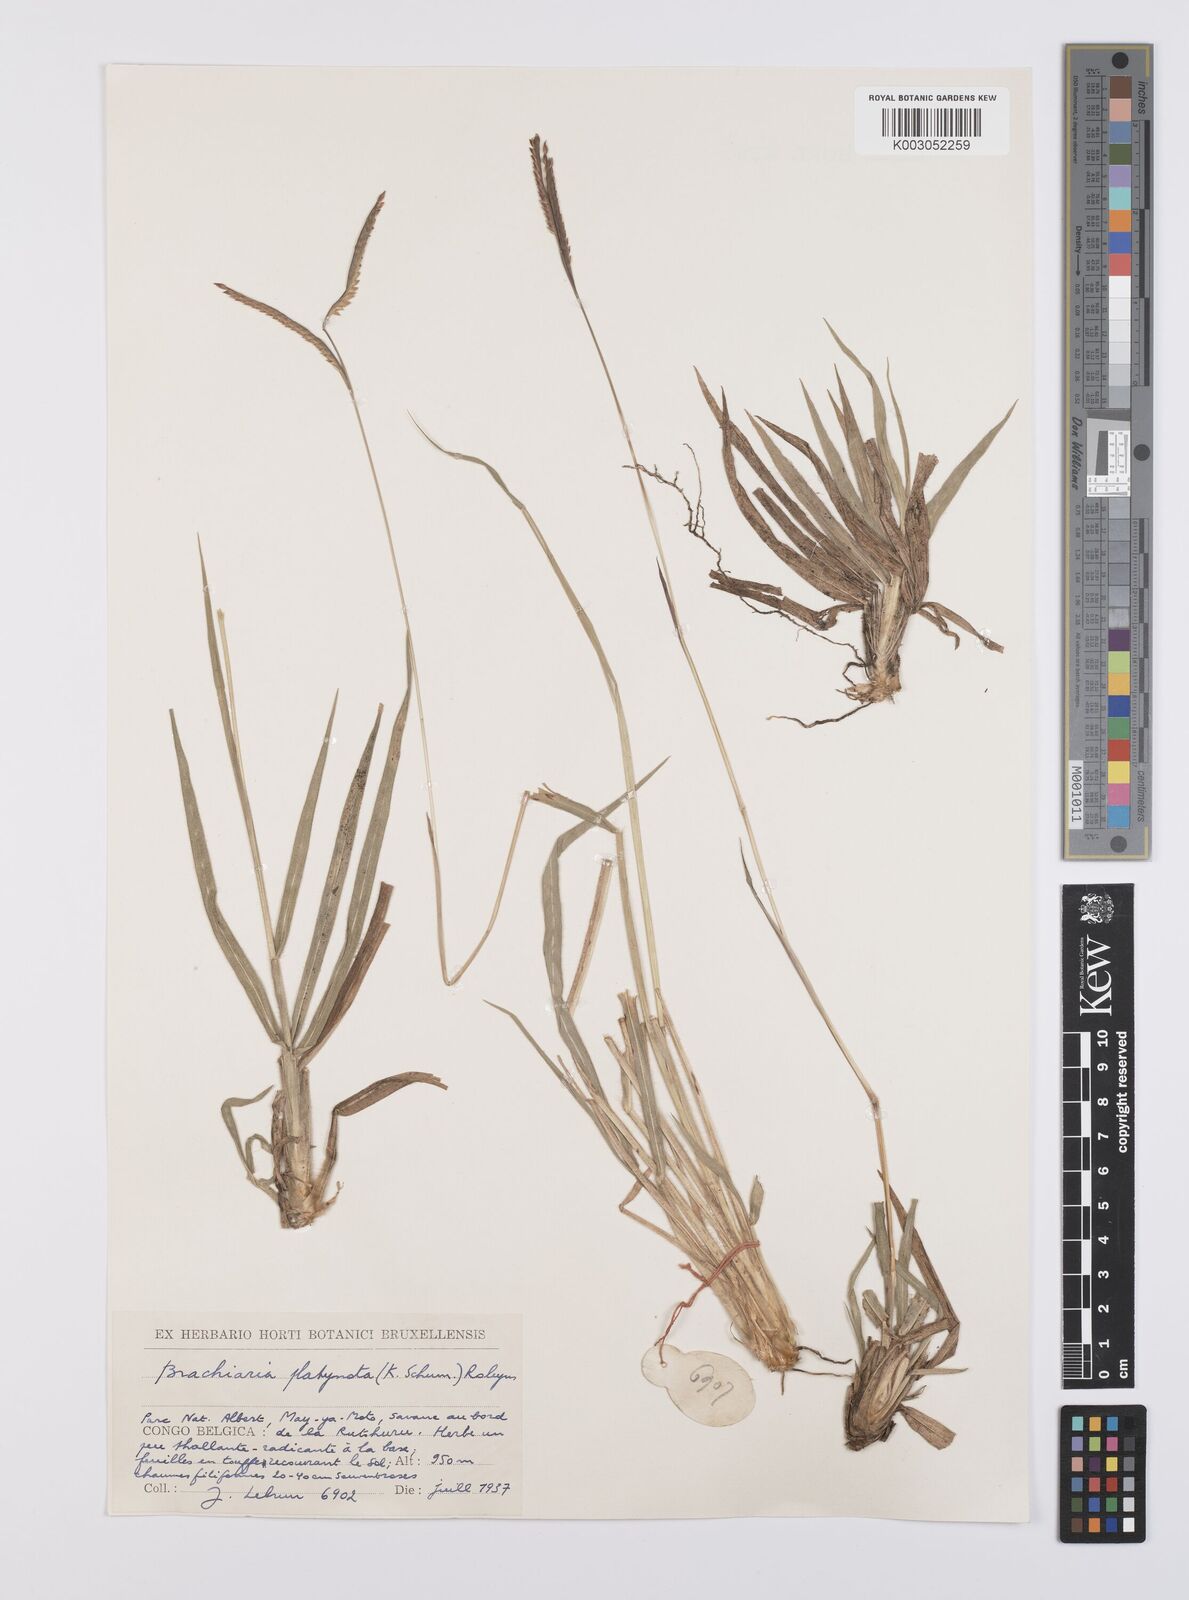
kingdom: Plantae
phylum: Tracheophyta
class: Liliopsida
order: Poales
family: Poaceae
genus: Urochloa
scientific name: Urochloa platynota
